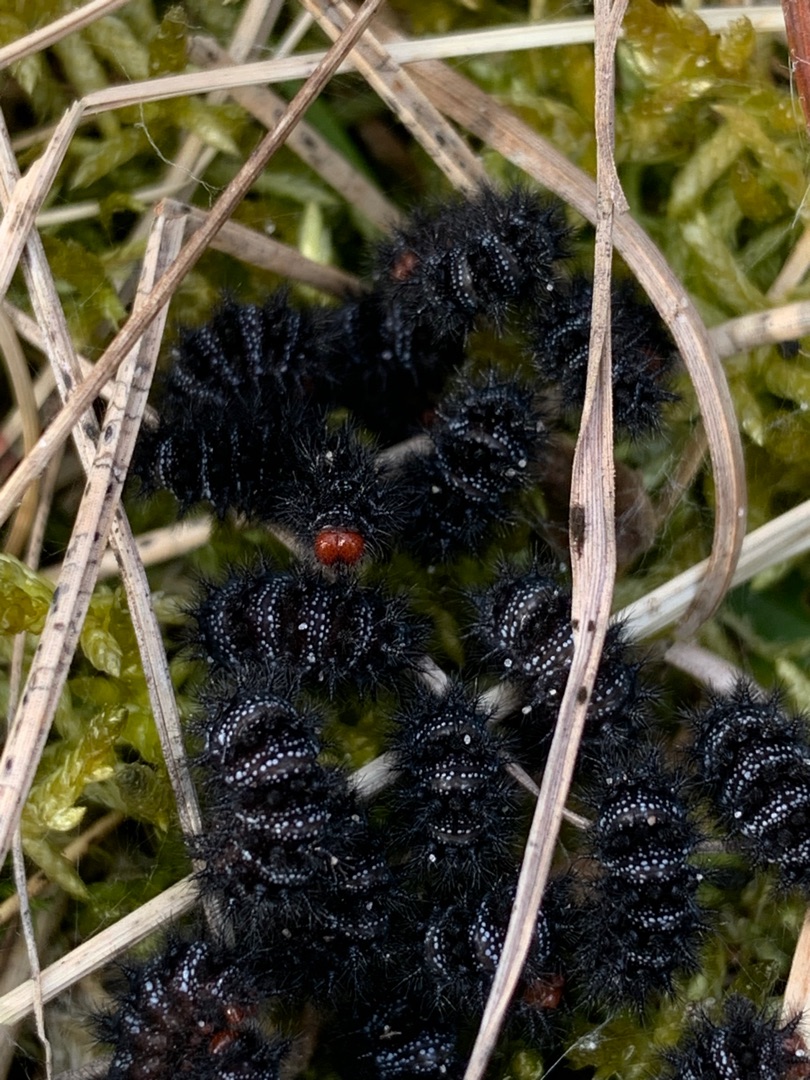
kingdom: Animalia
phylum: Arthropoda
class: Insecta
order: Lepidoptera
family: Nymphalidae
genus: Melitaea
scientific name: Melitaea cinxia
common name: Okkergul pletvinge
